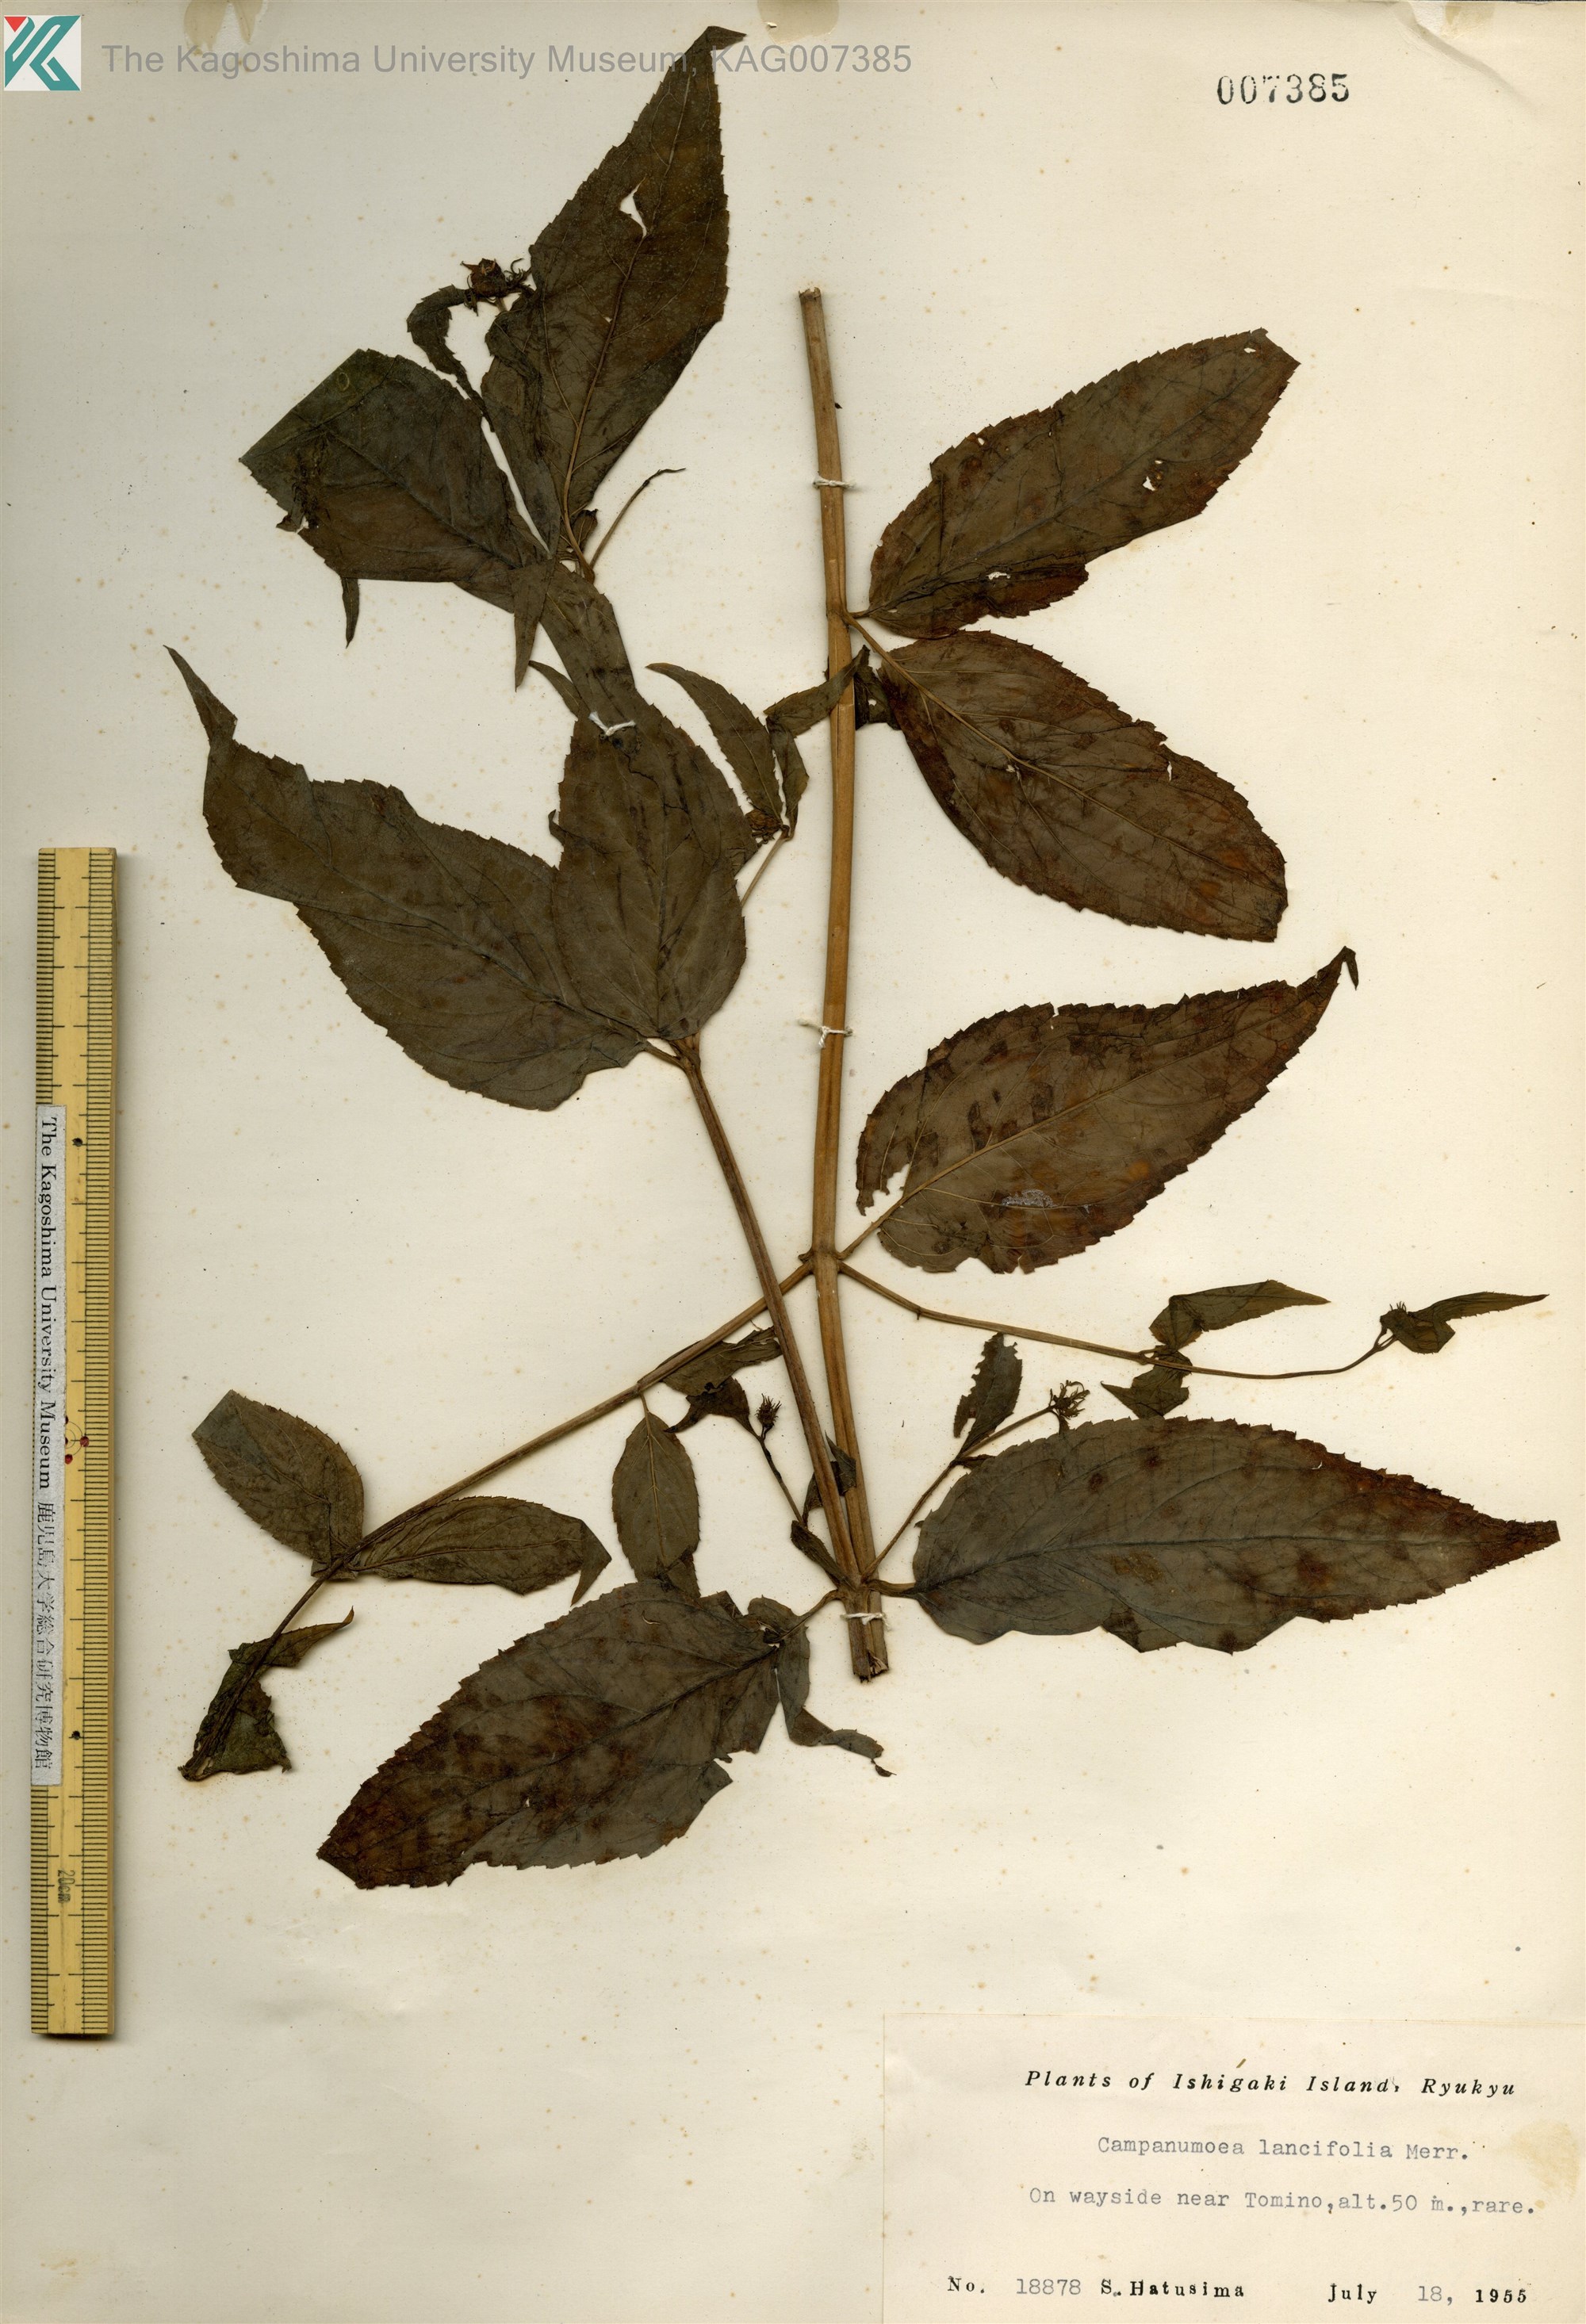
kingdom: Plantae
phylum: Tracheophyta
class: Magnoliopsida
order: Asterales
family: Campanulaceae
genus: Cyclocodon
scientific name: Cyclocodon lancifolius
